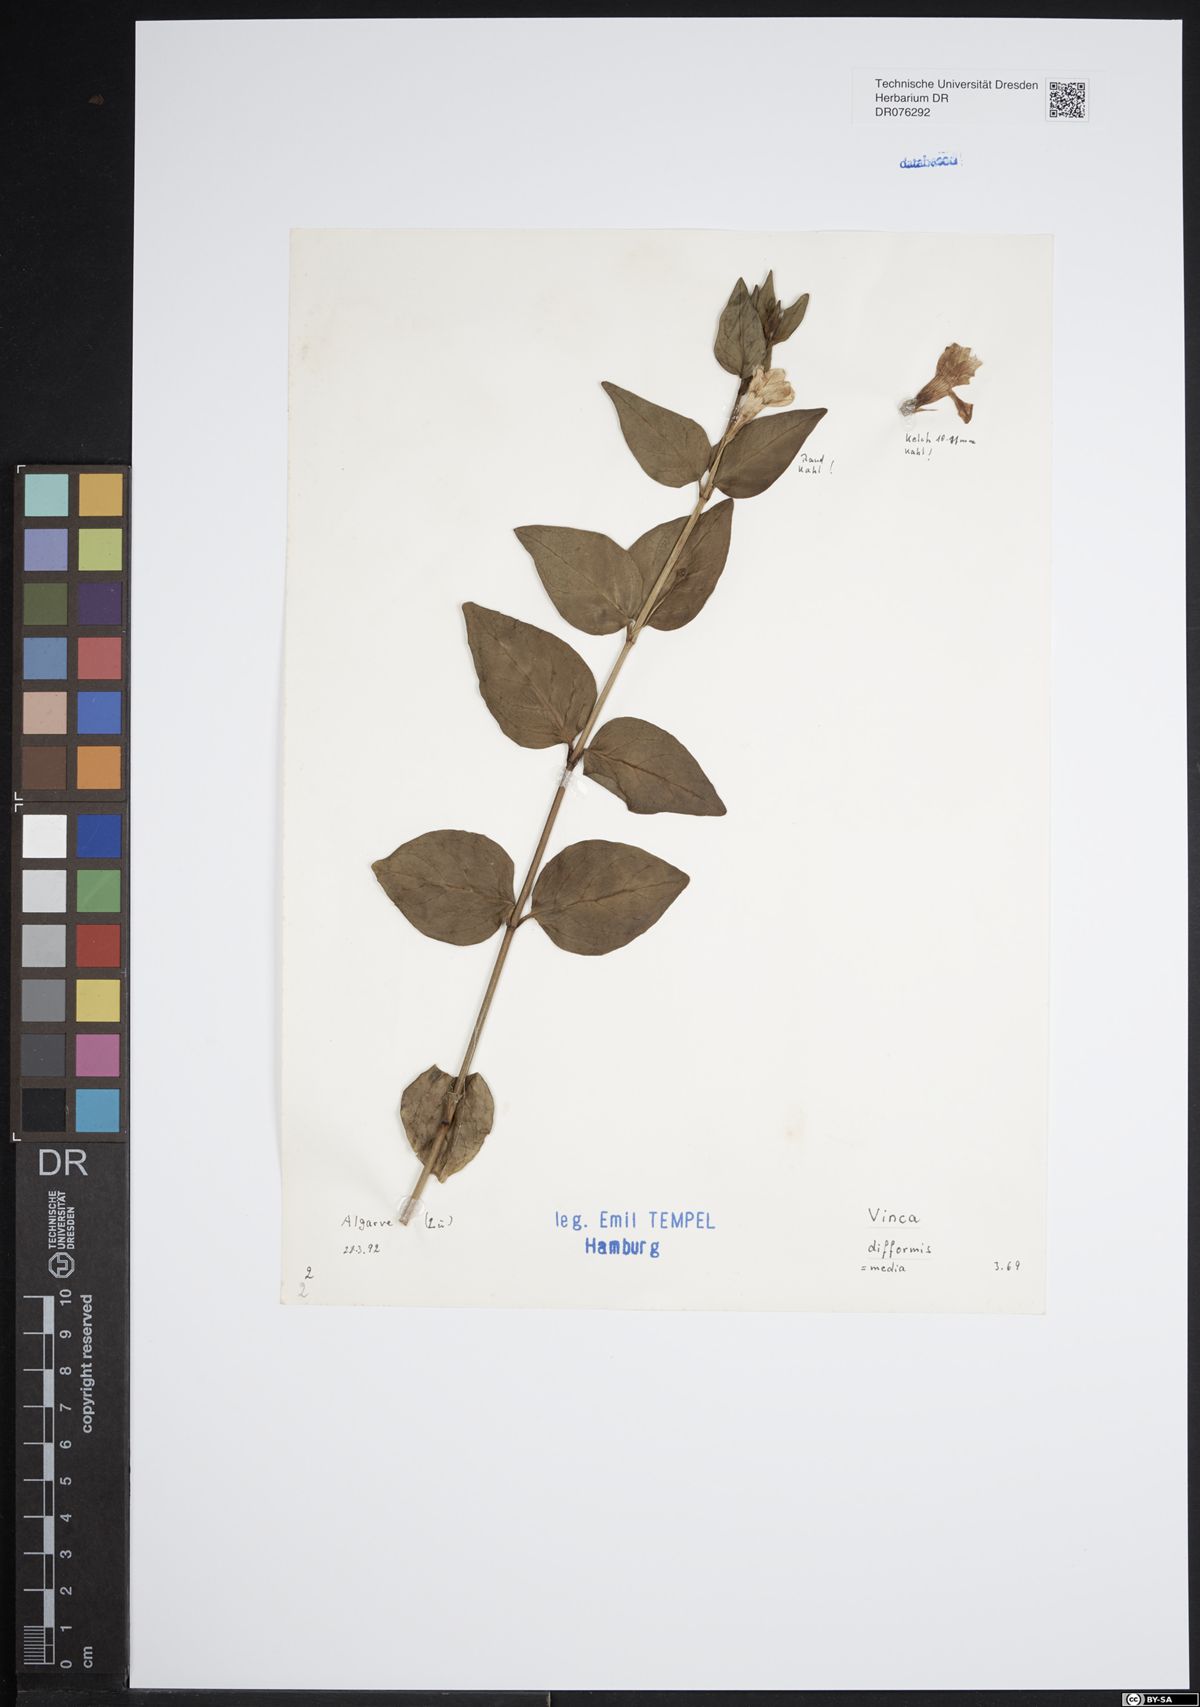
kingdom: Plantae
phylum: Tracheophyta
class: Magnoliopsida
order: Gentianales
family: Apocynaceae
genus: Vinca
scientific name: Vinca difformis
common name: Intermediate periwinkle
